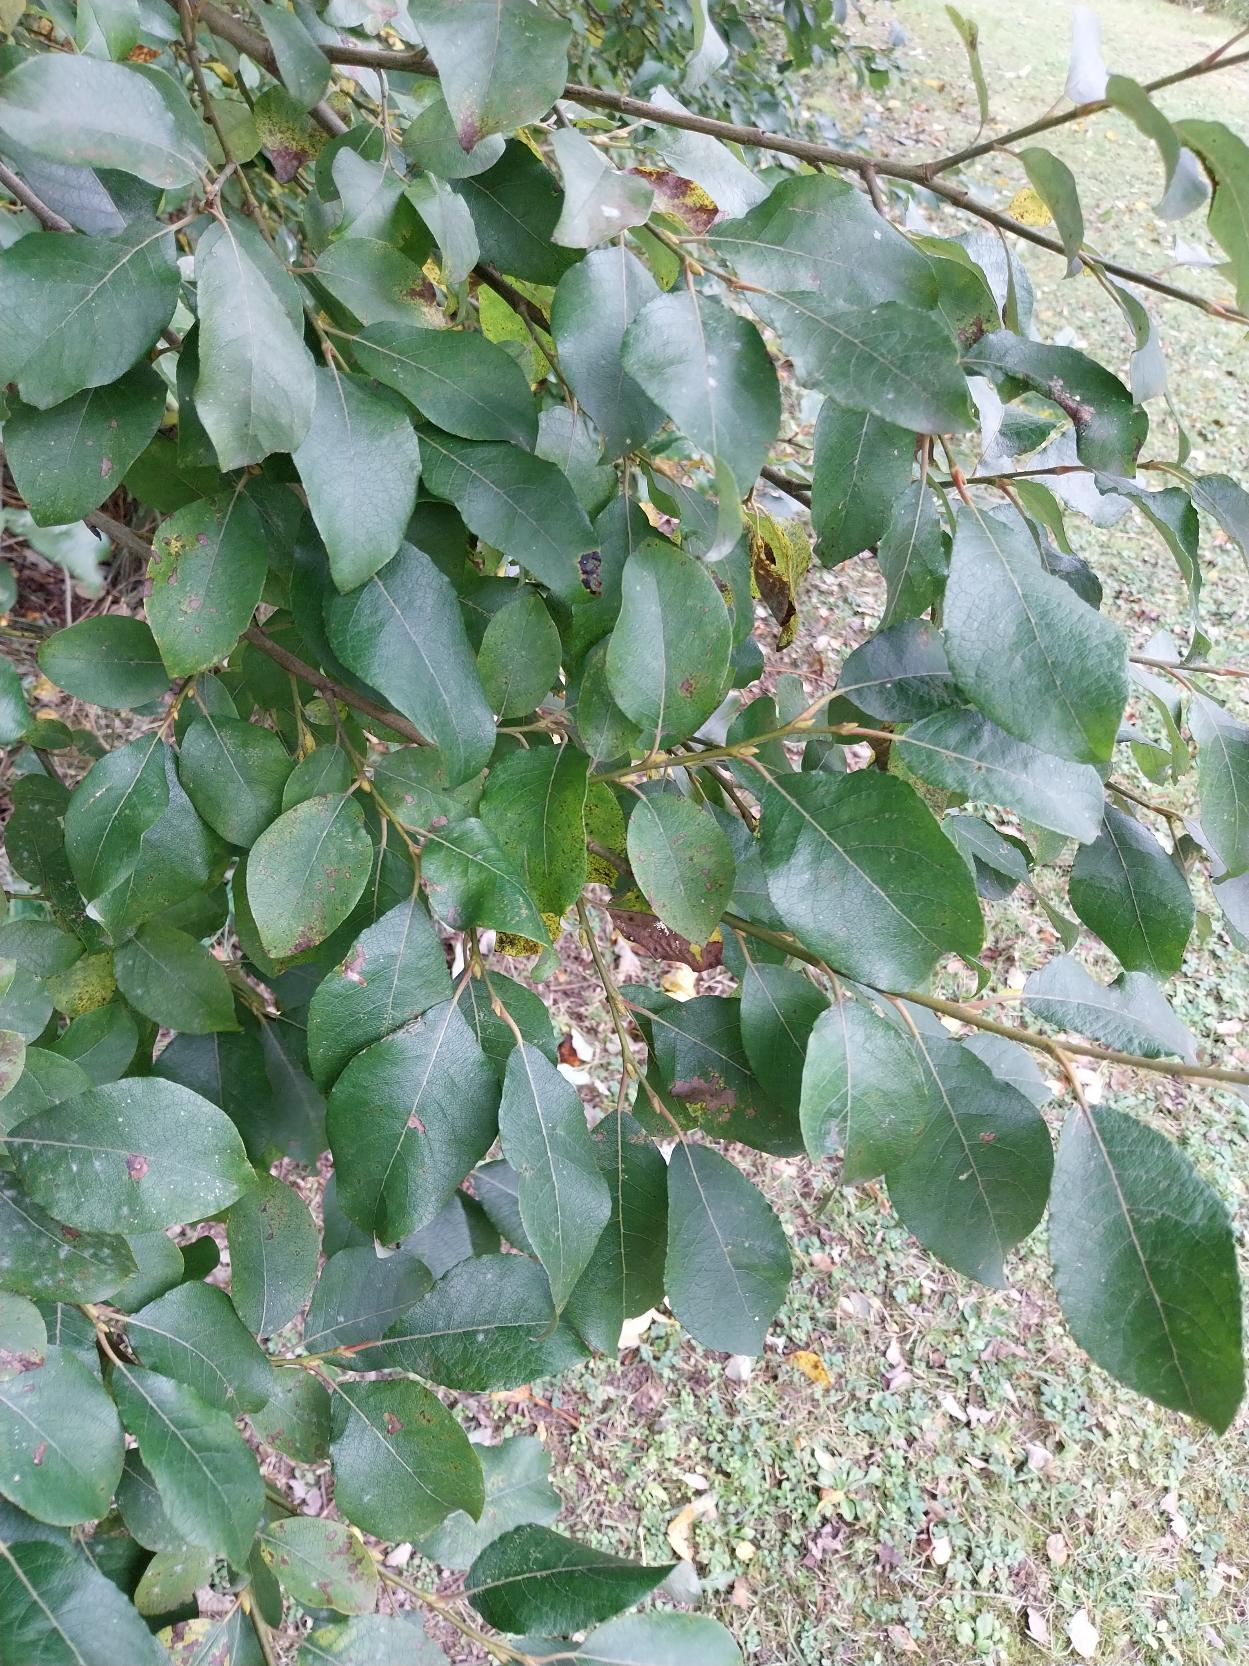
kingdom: Plantae
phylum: Tracheophyta
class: Magnoliopsida
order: Malpighiales
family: Salicaceae
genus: Salix
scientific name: Salix caprea
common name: Selje-pil
